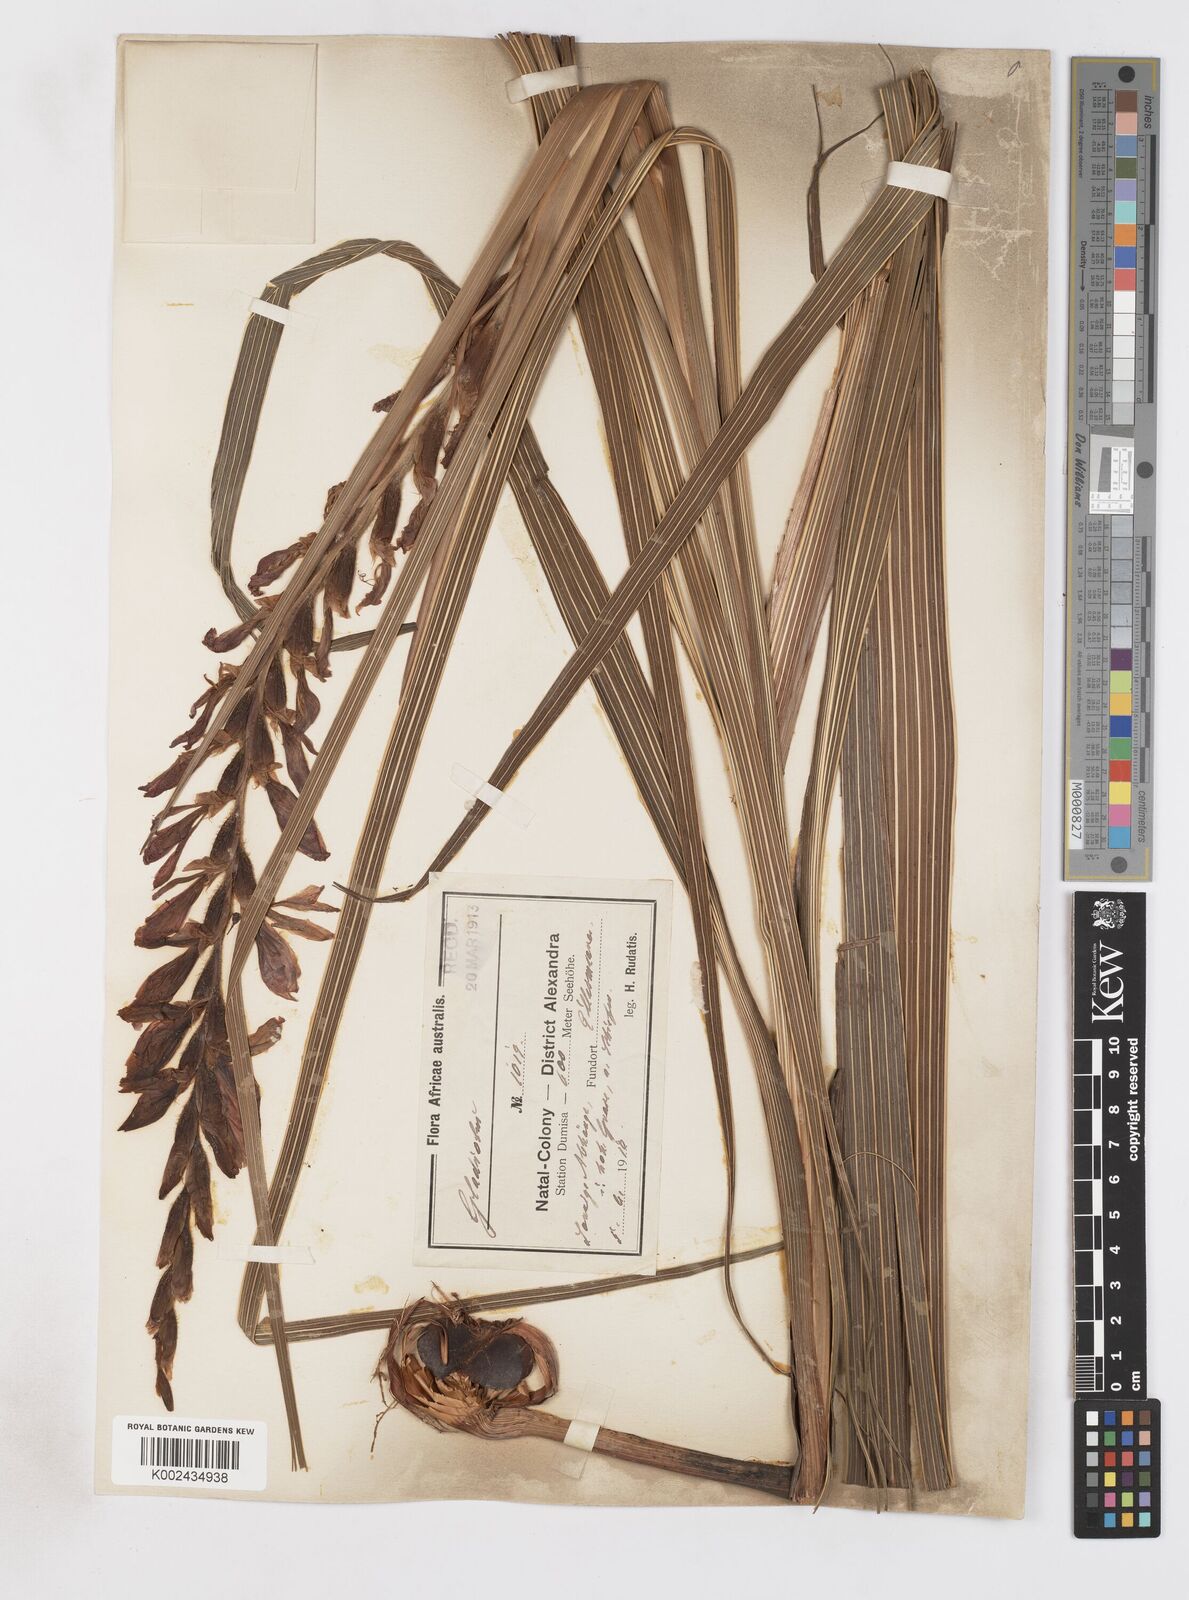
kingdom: Plantae
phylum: Tracheophyta
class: Liliopsida
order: Asparagales
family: Iridaceae
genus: Gladiolus
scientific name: Gladiolus sericeovillosus
